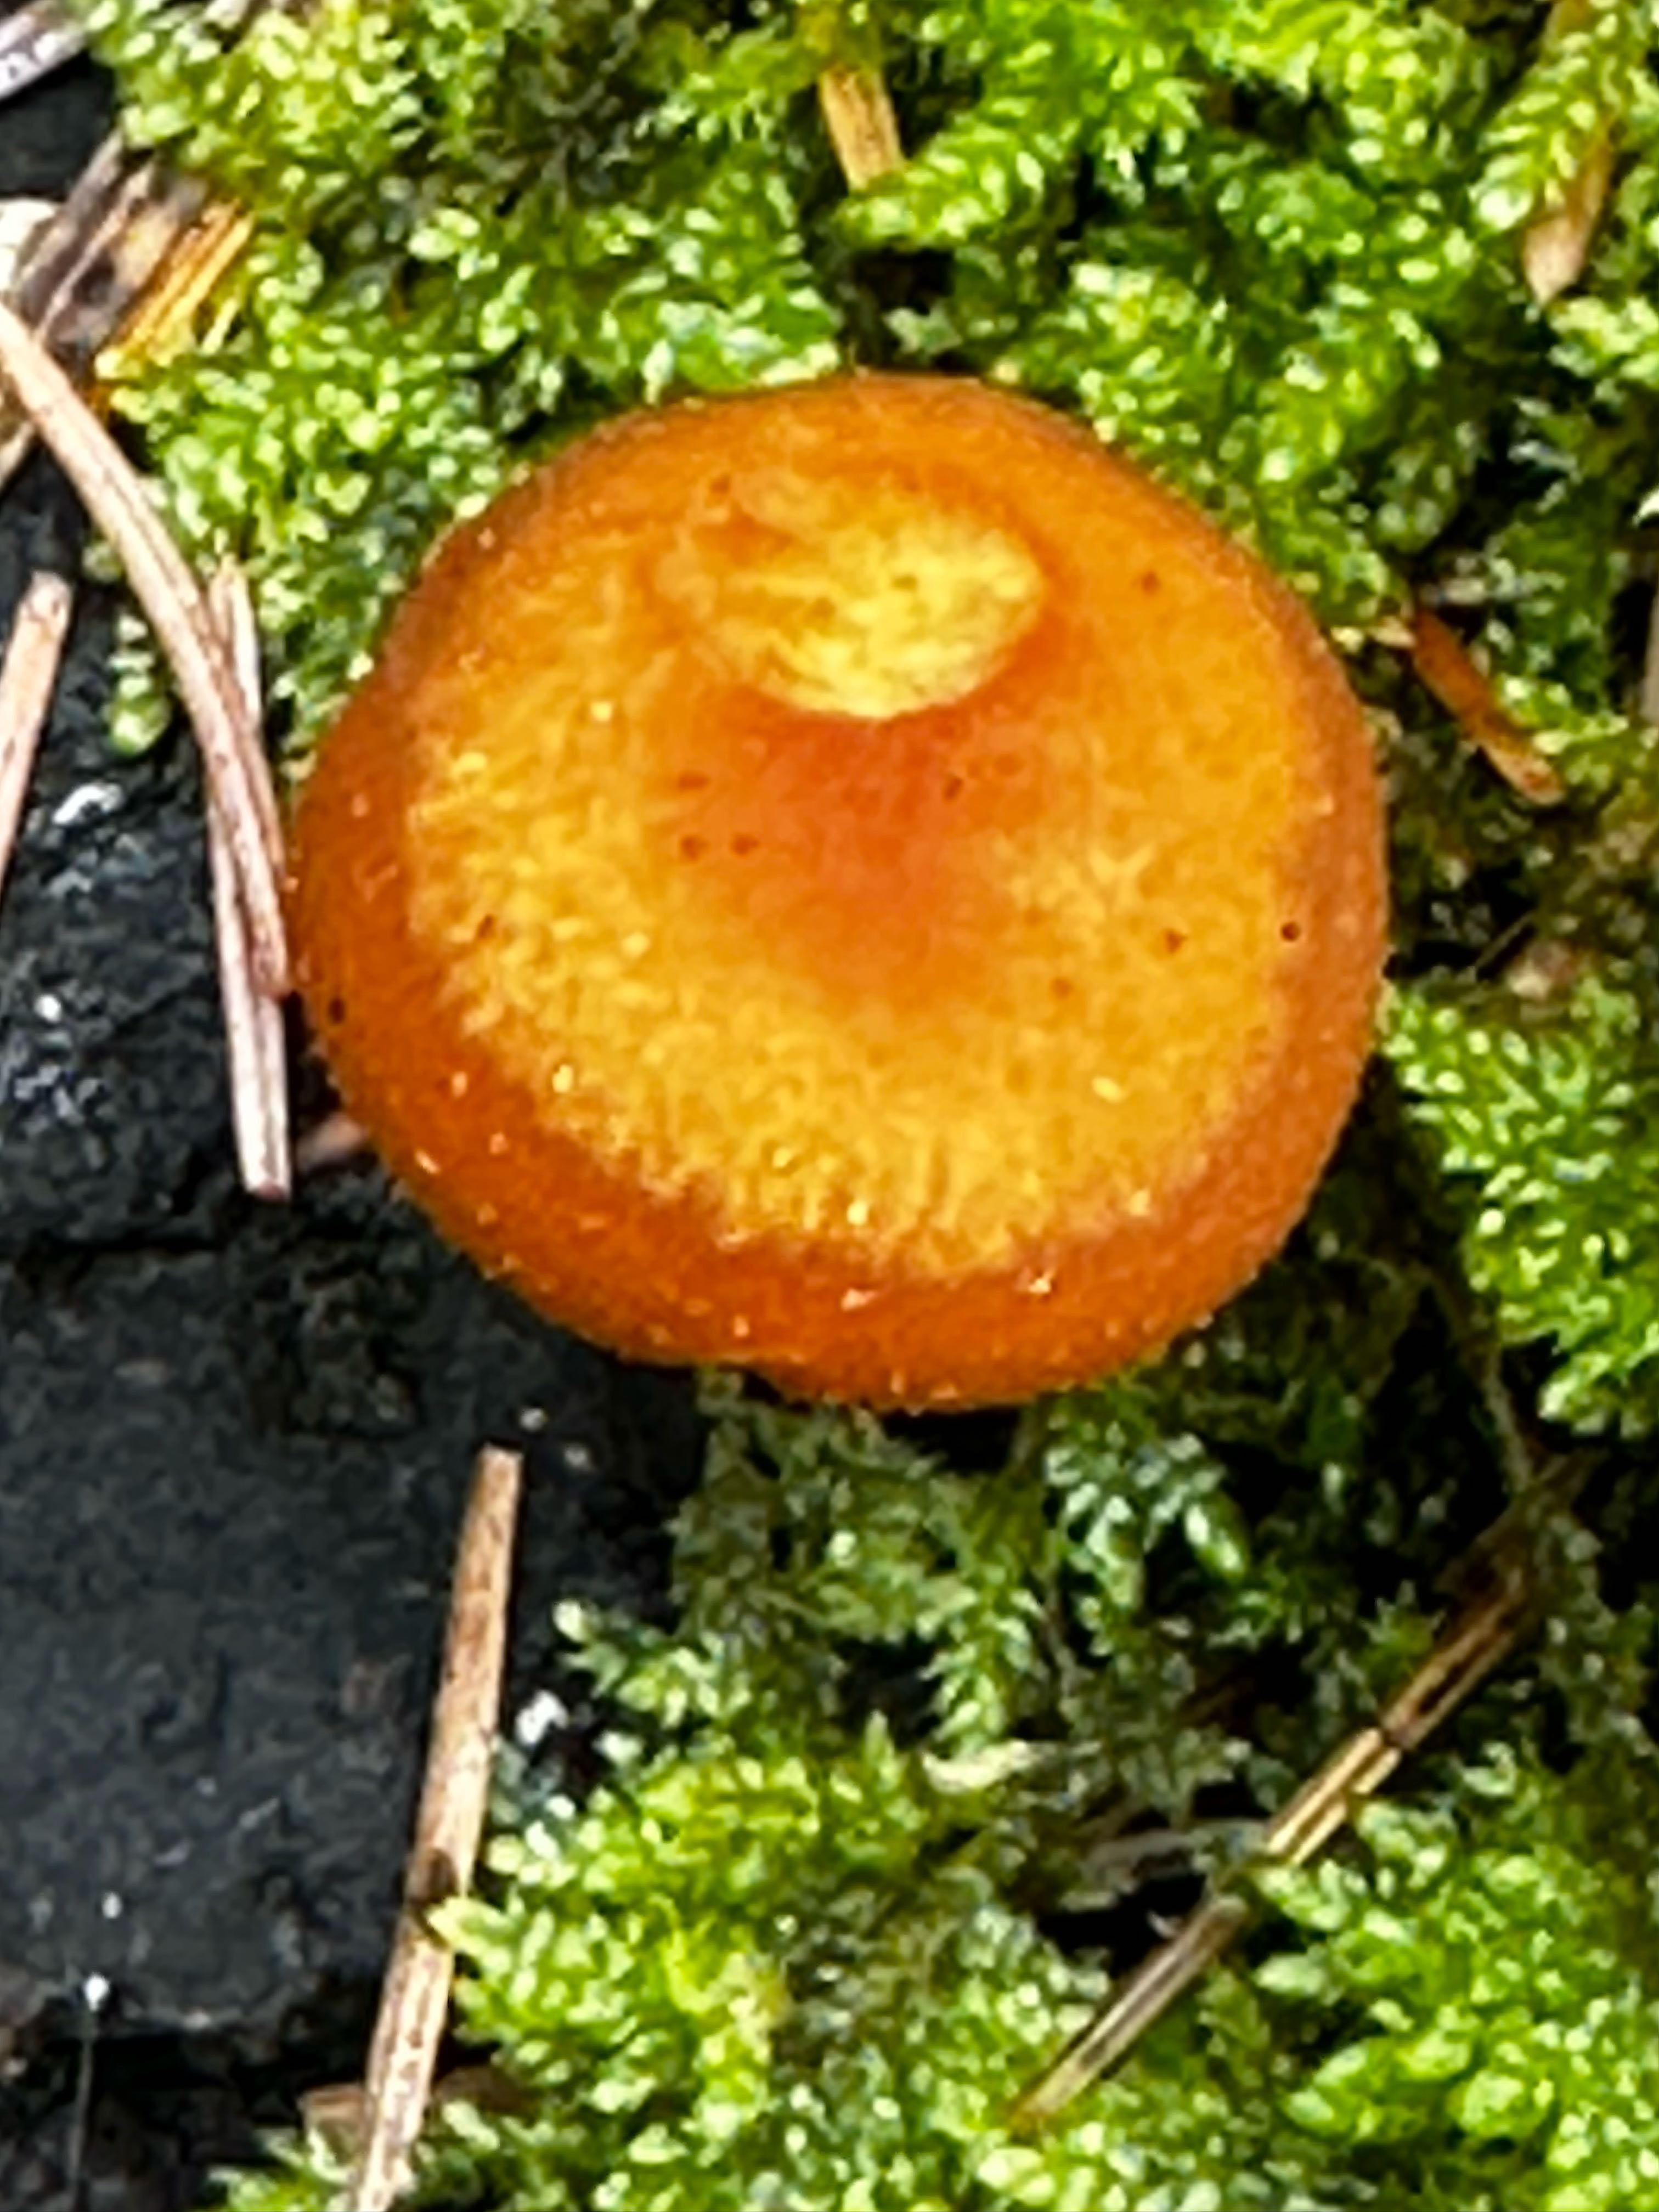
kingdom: Fungi
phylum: Basidiomycota
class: Agaricomycetes
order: Agaricales
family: Strophariaceae
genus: Kuehneromyces
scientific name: Kuehneromyces mutabilis
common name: foranderlig skælhat
